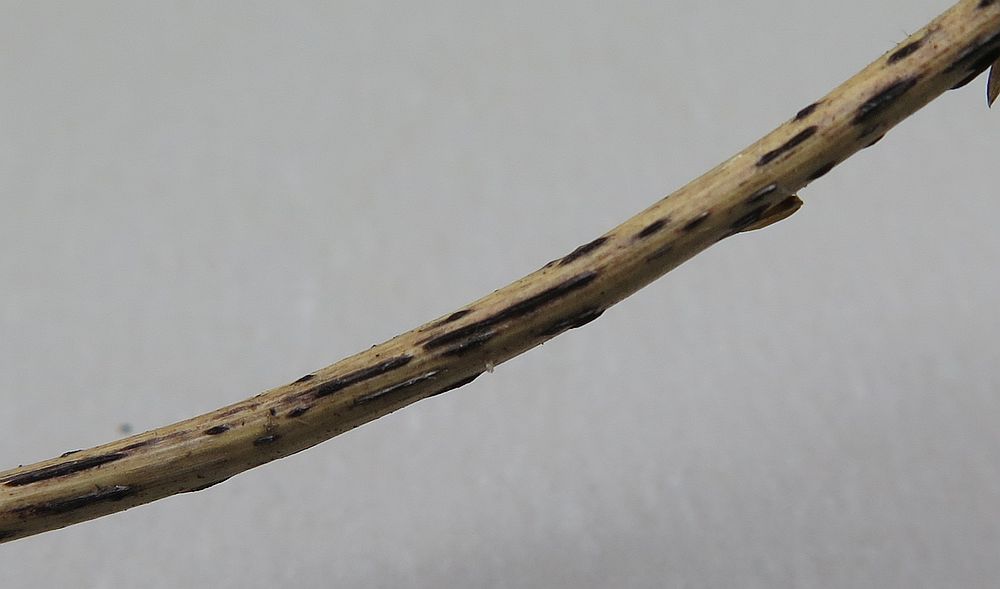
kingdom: Fungi
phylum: Ascomycota
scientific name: Ascomycota
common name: sæksvampe
